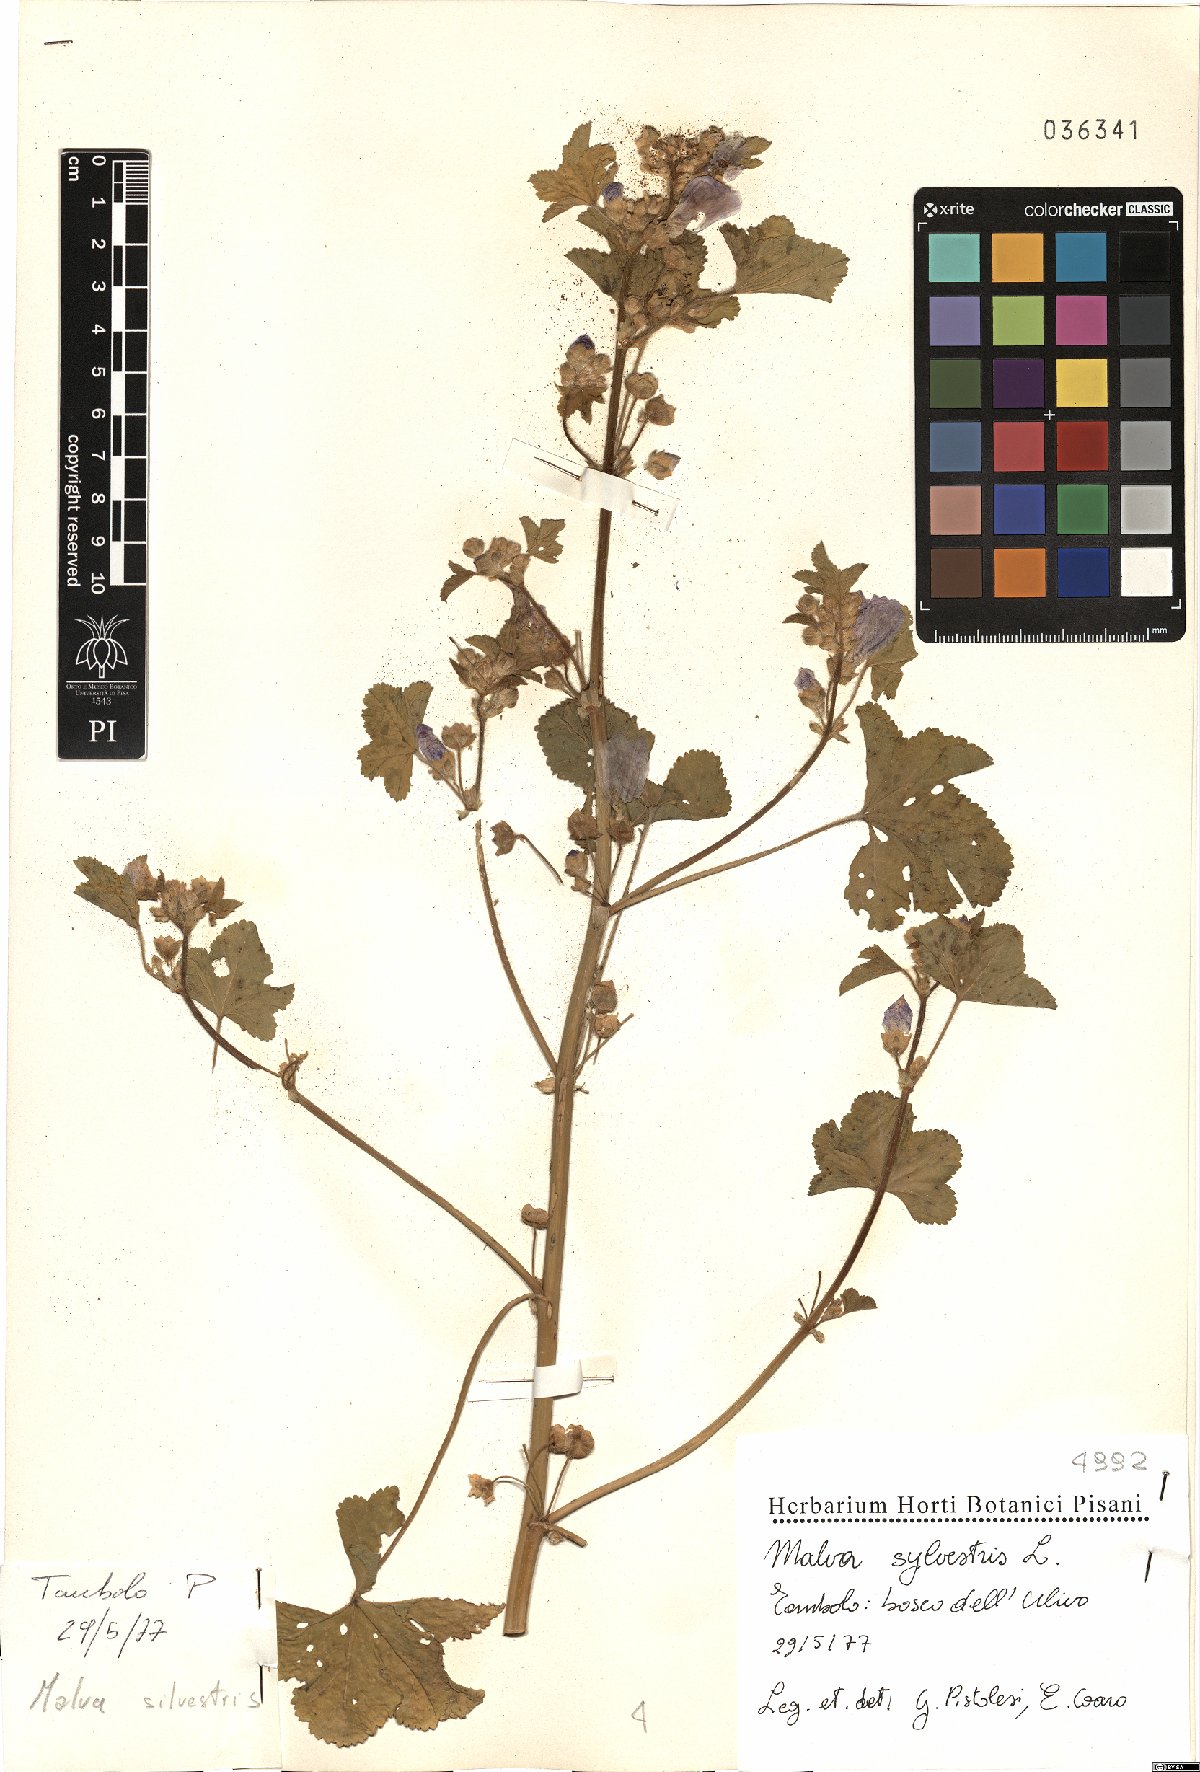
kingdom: Plantae
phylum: Tracheophyta
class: Magnoliopsida
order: Malvales
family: Malvaceae
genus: Malva
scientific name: Malva sylvestris
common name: Common mallow
